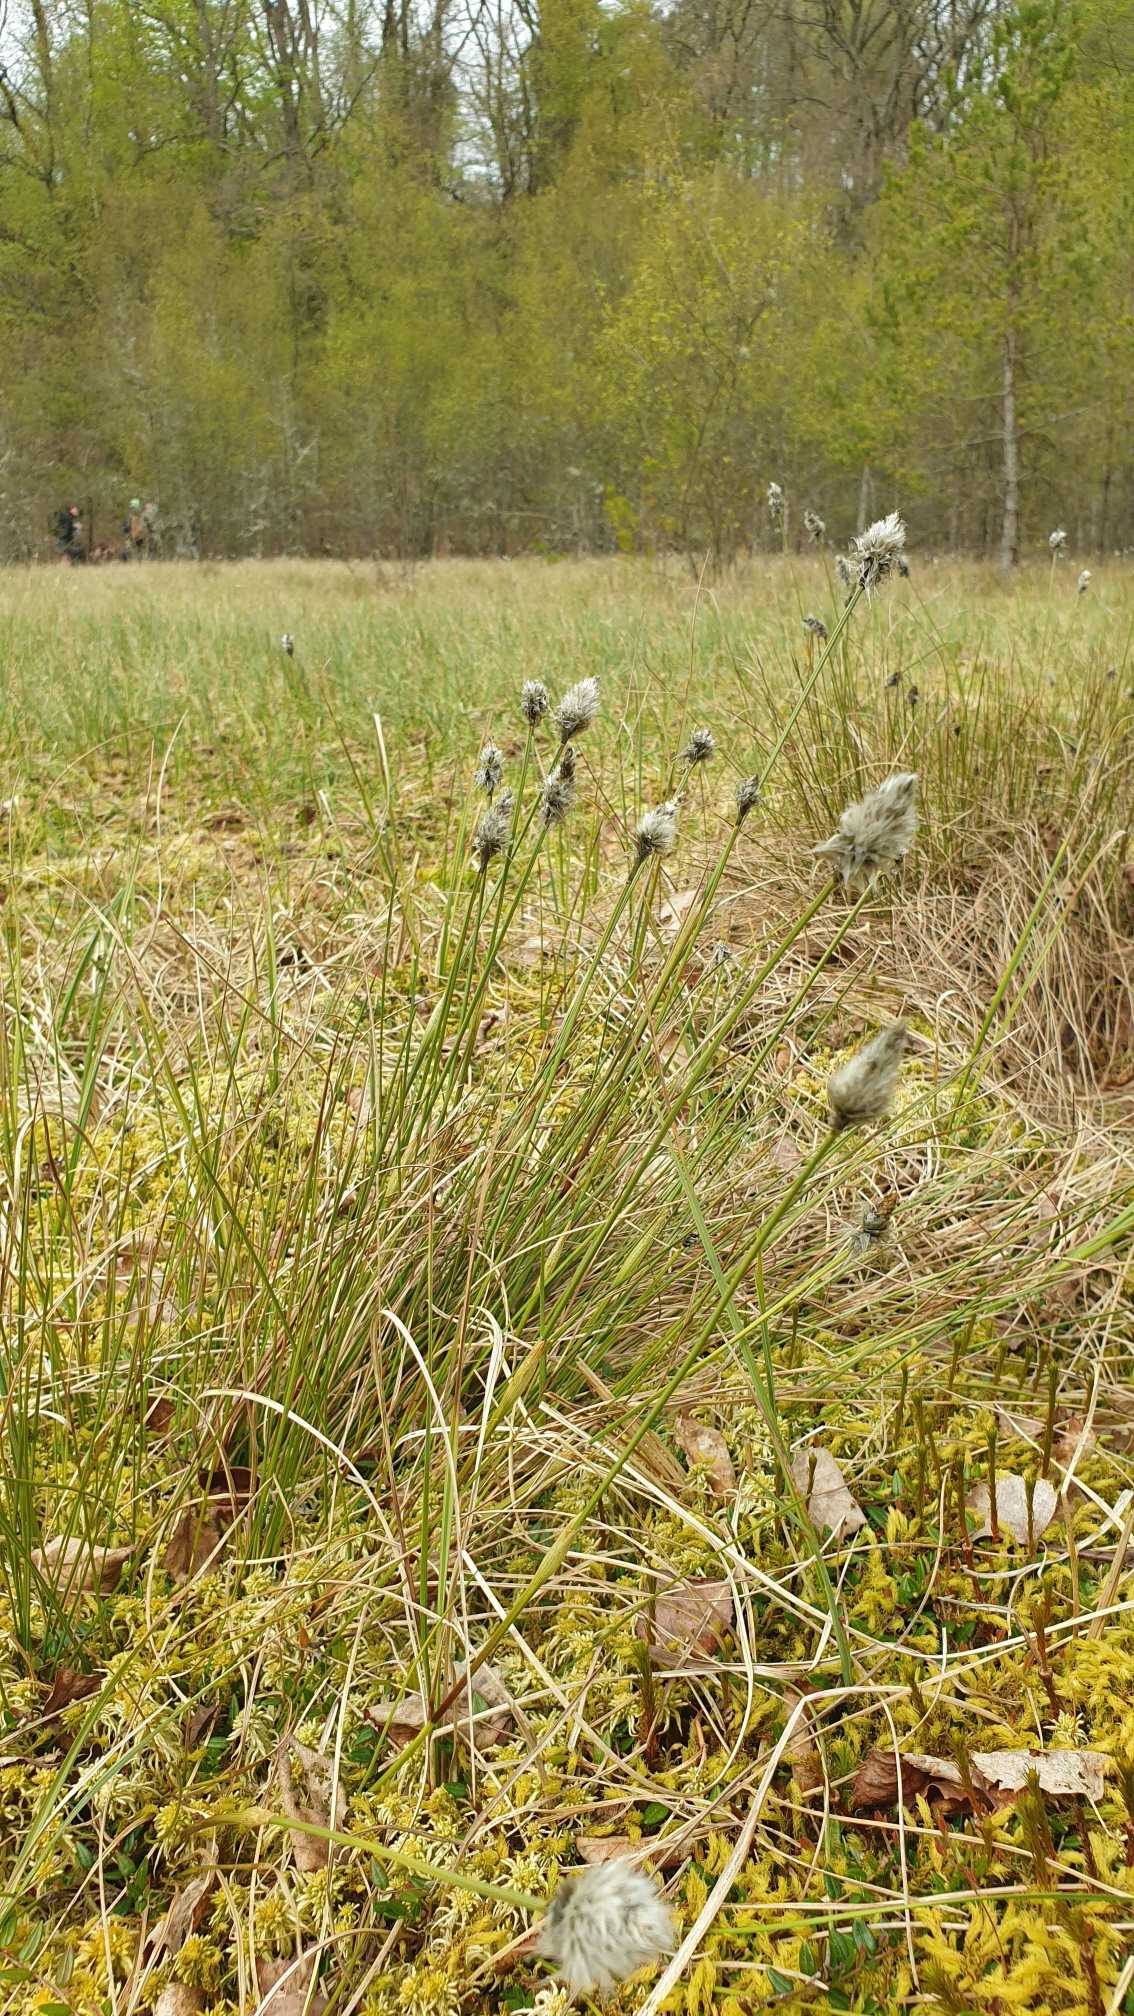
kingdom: Plantae
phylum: Tracheophyta
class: Liliopsida
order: Poales
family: Cyperaceae
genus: Eriophorum
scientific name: Eriophorum vaginatum
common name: Tue-kæruld
